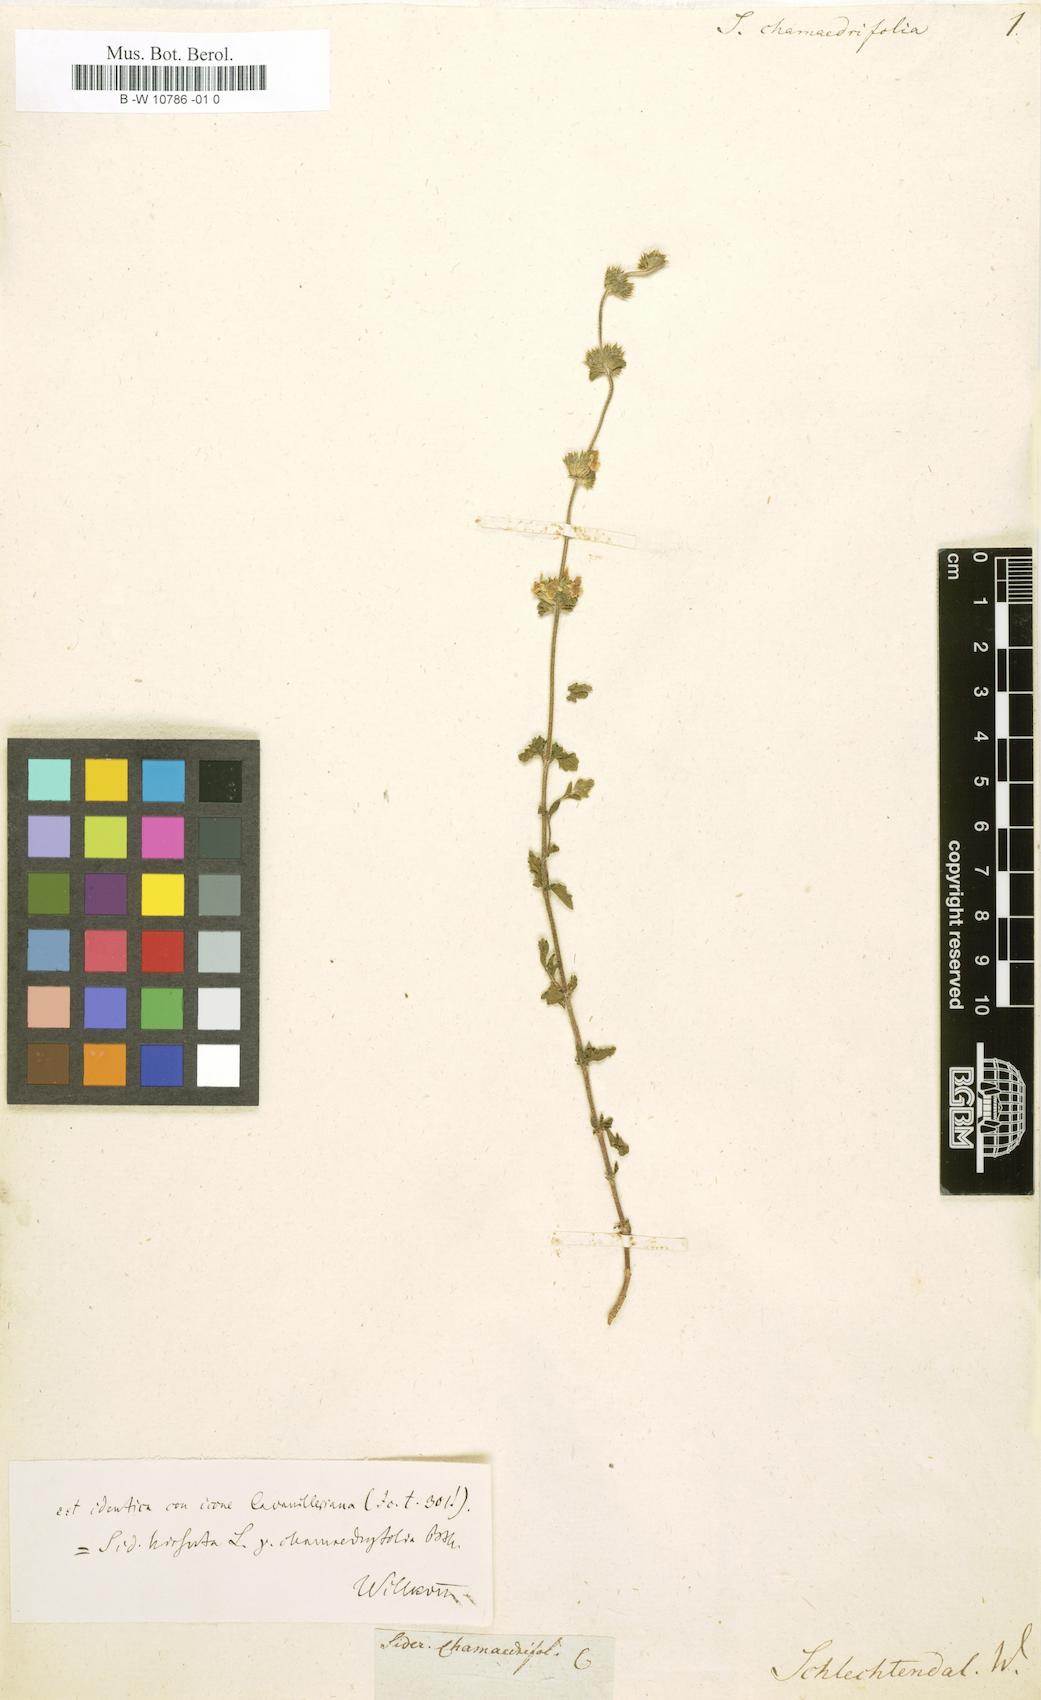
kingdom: Plantae
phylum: Tracheophyta
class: Magnoliopsida
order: Lamiales
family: Lamiaceae
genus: Sideritis
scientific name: Sideritis chamaedrifolia
